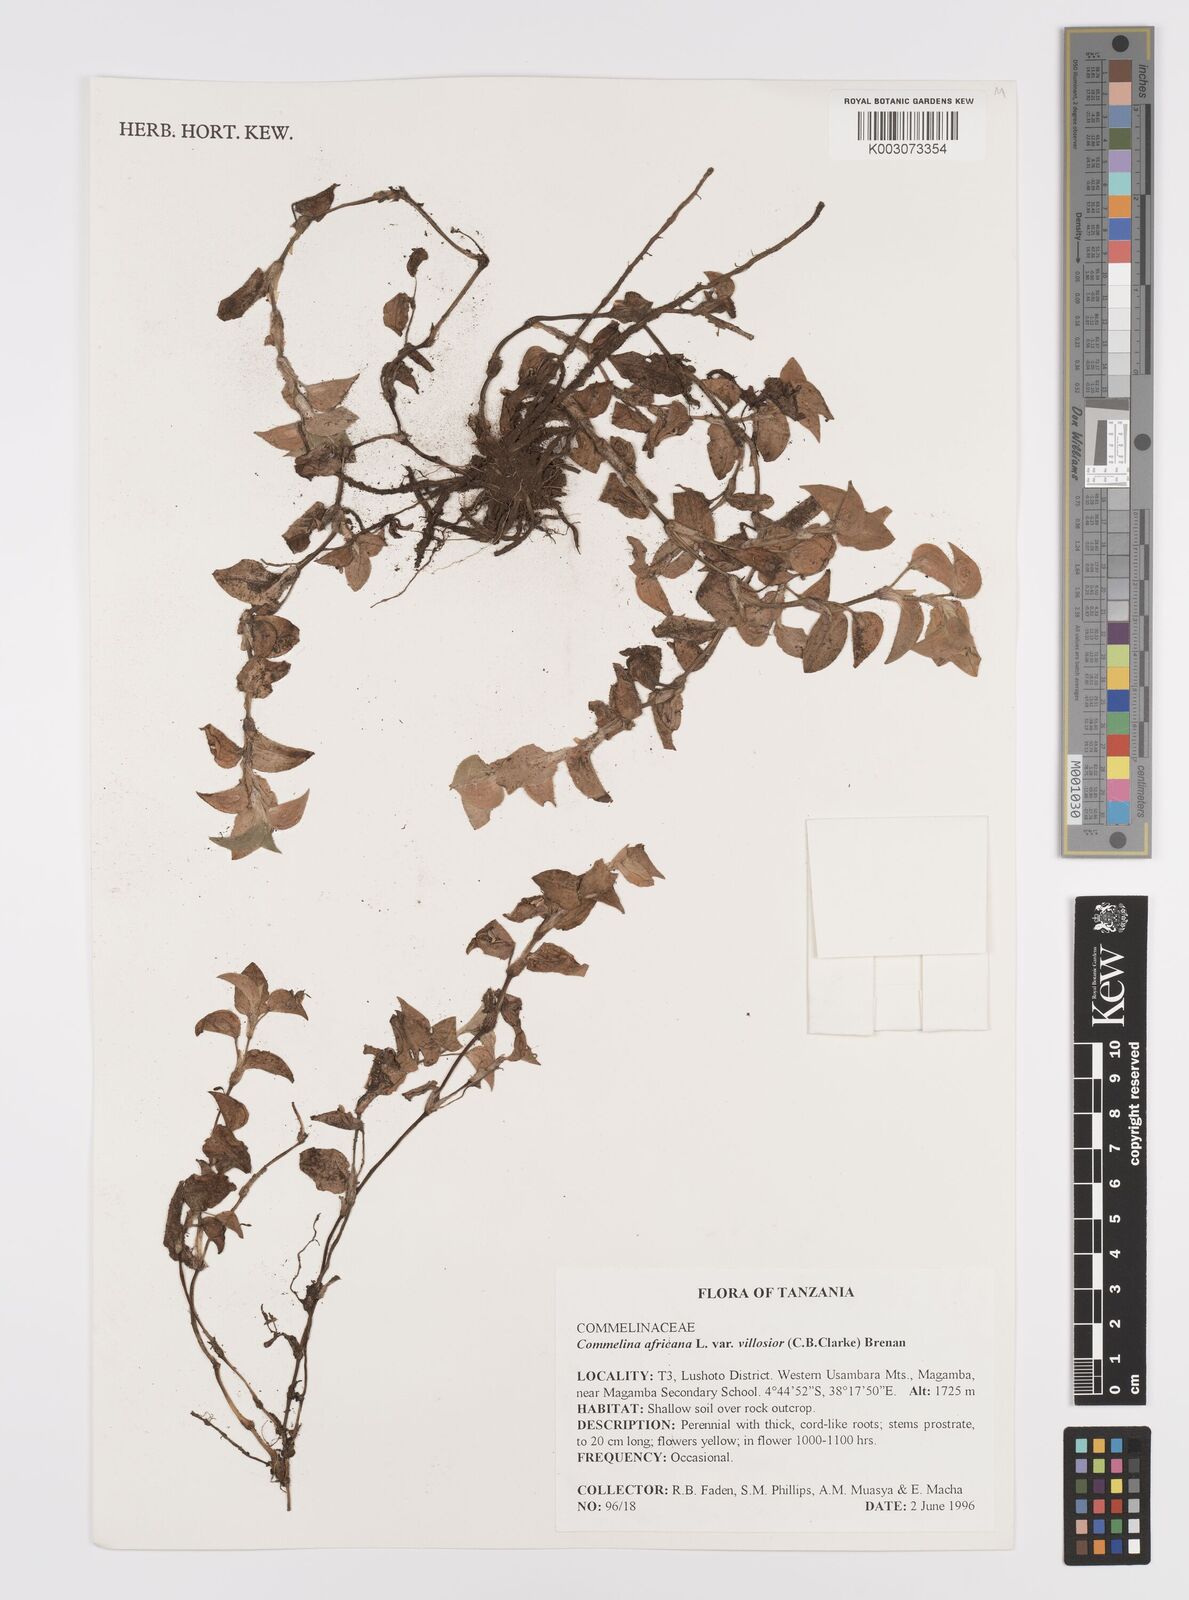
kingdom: Plantae
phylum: Tracheophyta
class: Liliopsida
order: Commelinales
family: Commelinaceae
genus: Commelina
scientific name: Commelina africana
